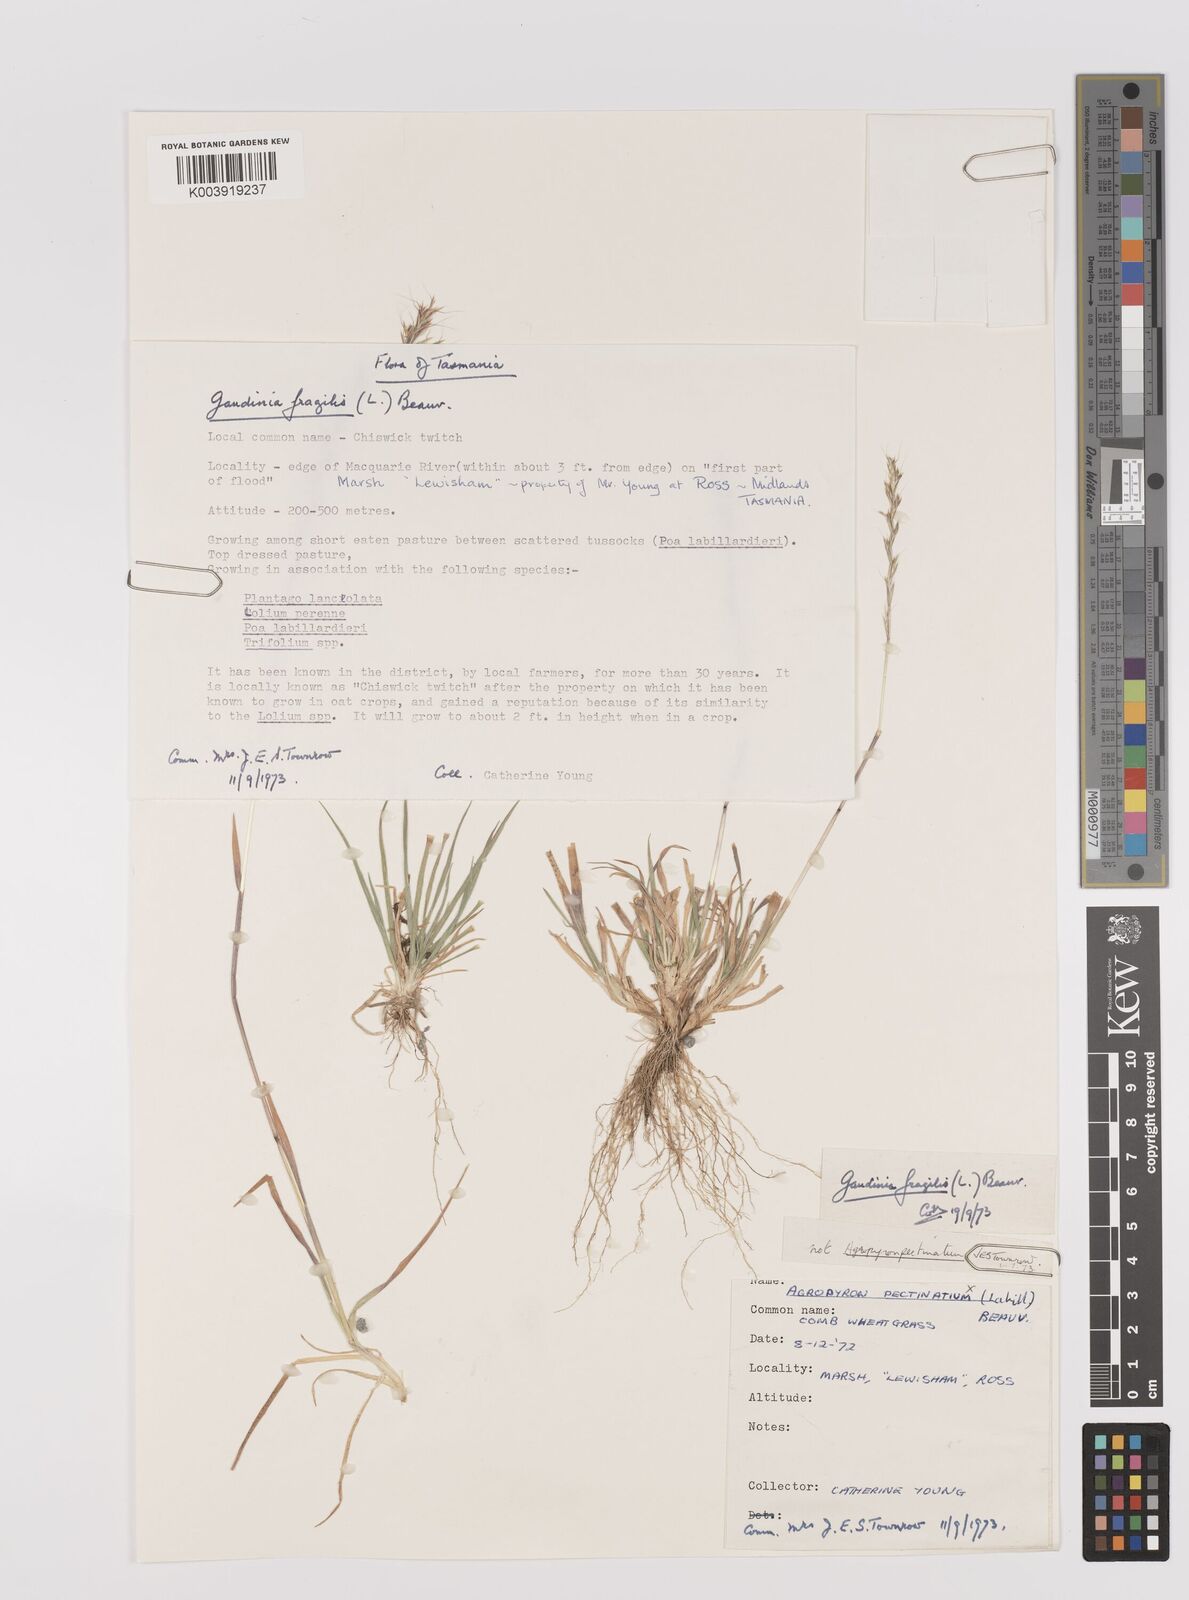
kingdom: Plantae
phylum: Tracheophyta
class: Liliopsida
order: Poales
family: Poaceae
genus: Gaudinia
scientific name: Gaudinia fragilis
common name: French oat-grass
